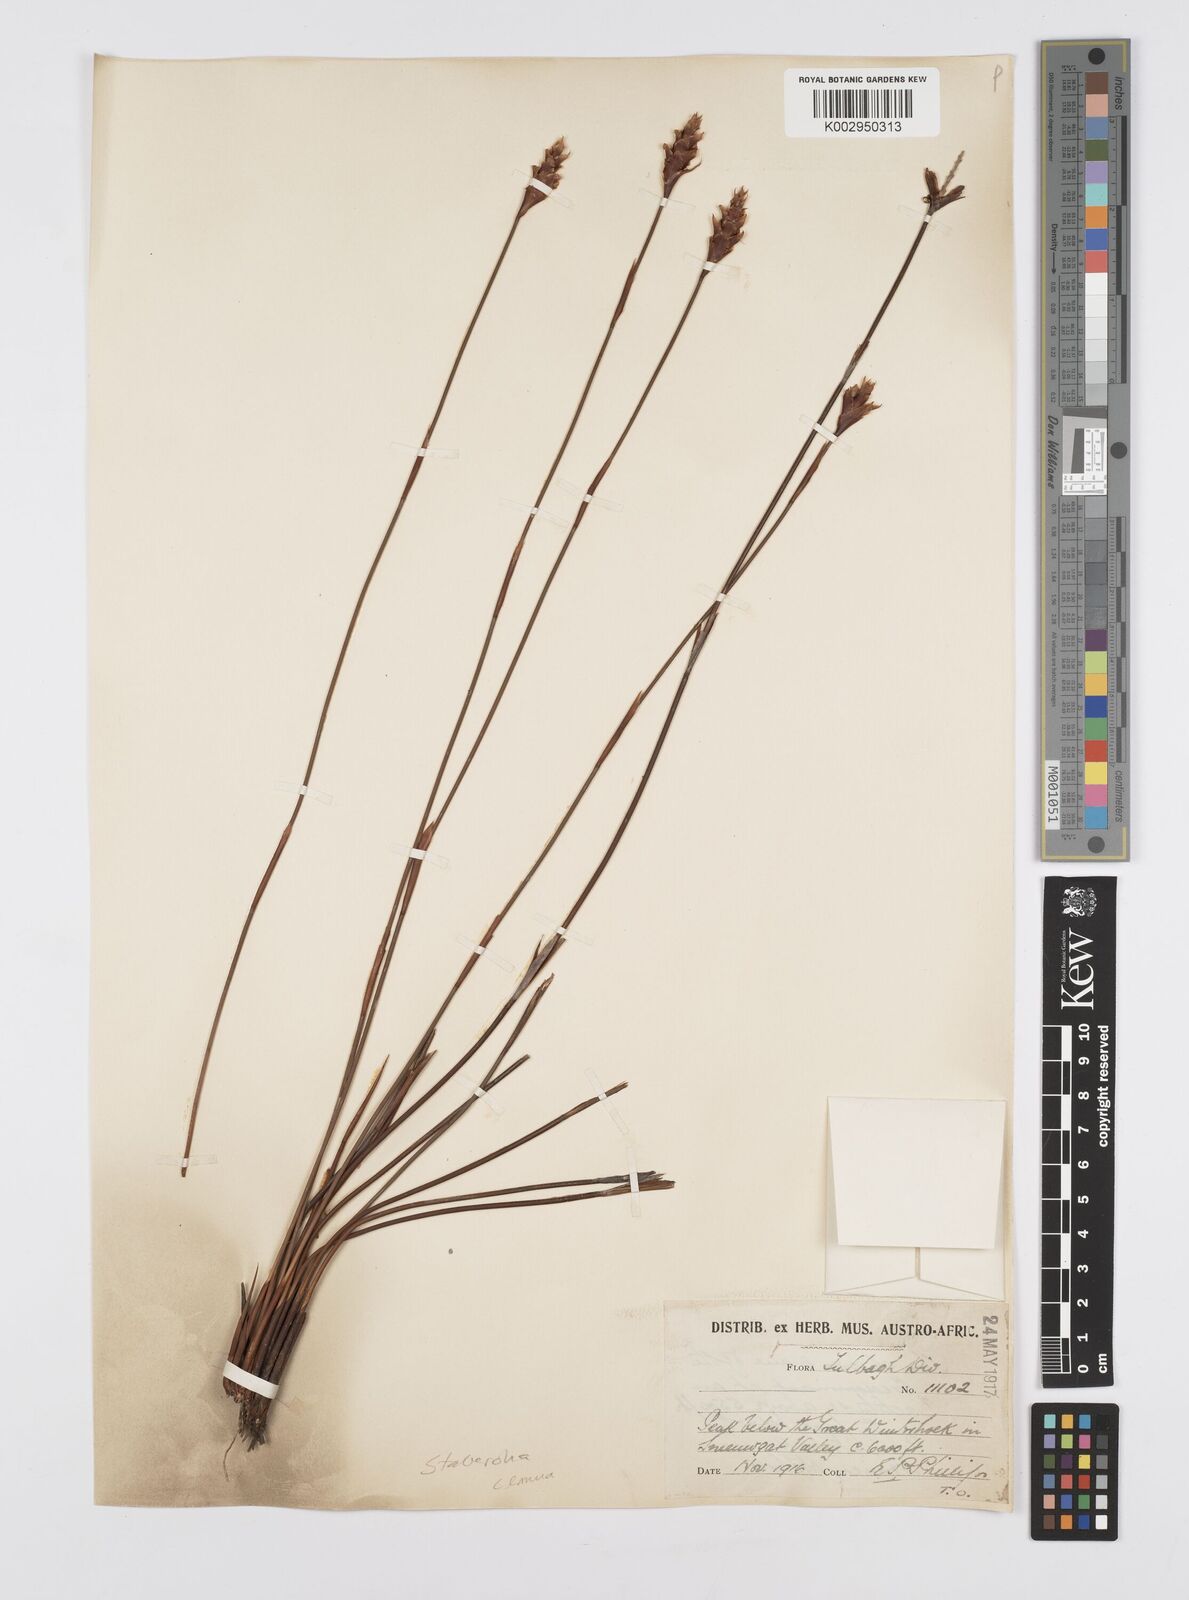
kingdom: Plantae
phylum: Tracheophyta
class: Liliopsida
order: Poales
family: Restionaceae
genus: Staberoha
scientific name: Staberoha cernua
